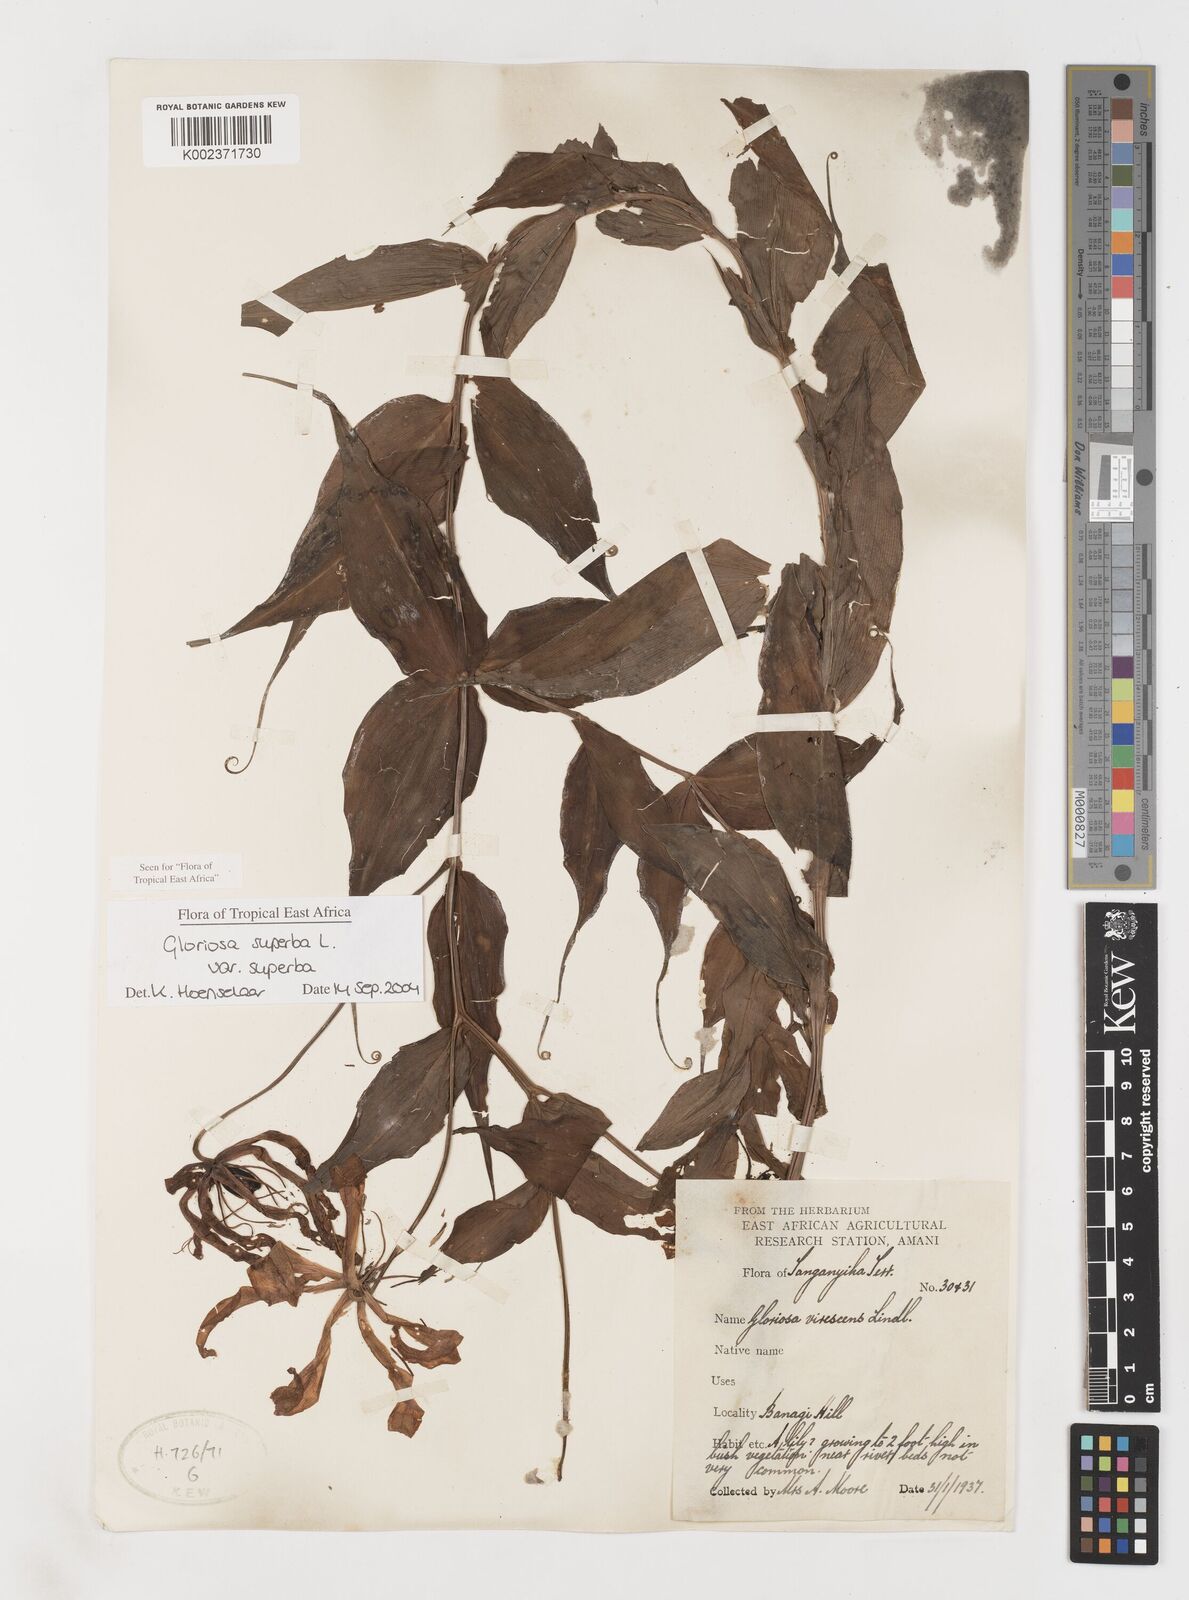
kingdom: Plantae
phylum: Tracheophyta
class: Liliopsida
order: Liliales
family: Colchicaceae
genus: Gloriosa
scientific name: Gloriosa simplex
